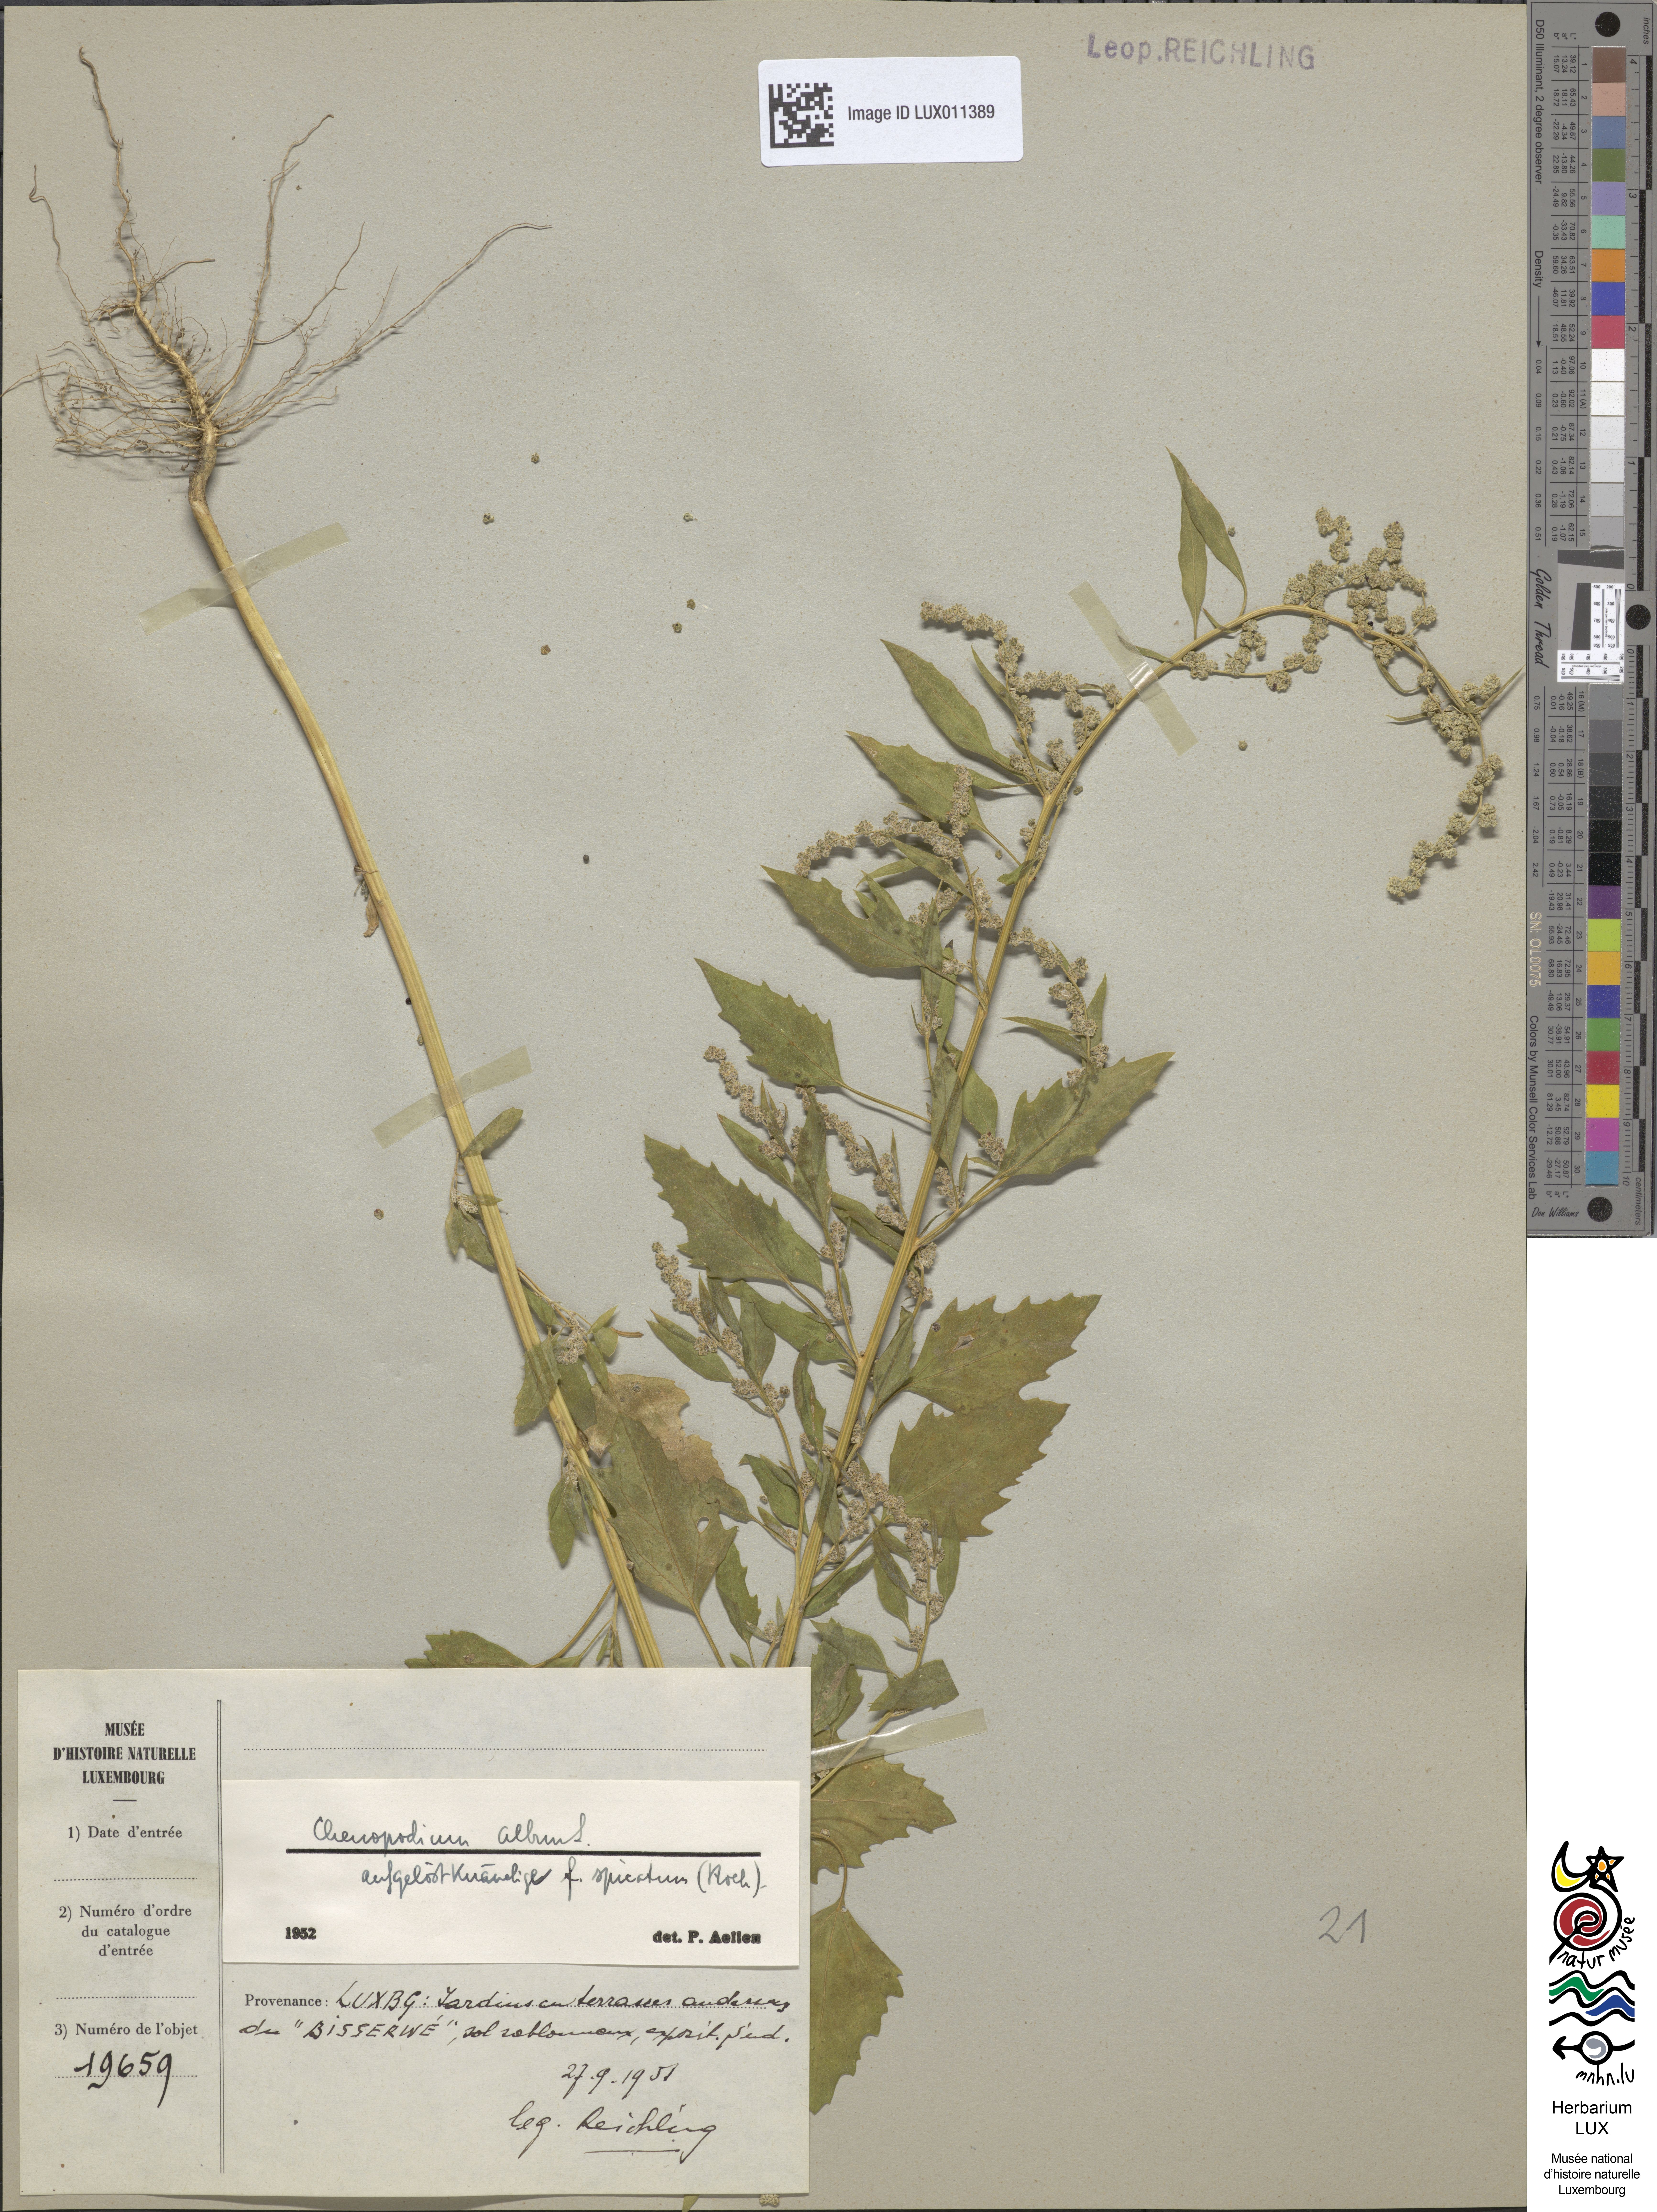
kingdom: Plantae
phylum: Tracheophyta
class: Magnoliopsida
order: Caryophyllales
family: Amaranthaceae
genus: Chenopodium
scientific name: Chenopodium album
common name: Fat-hen
